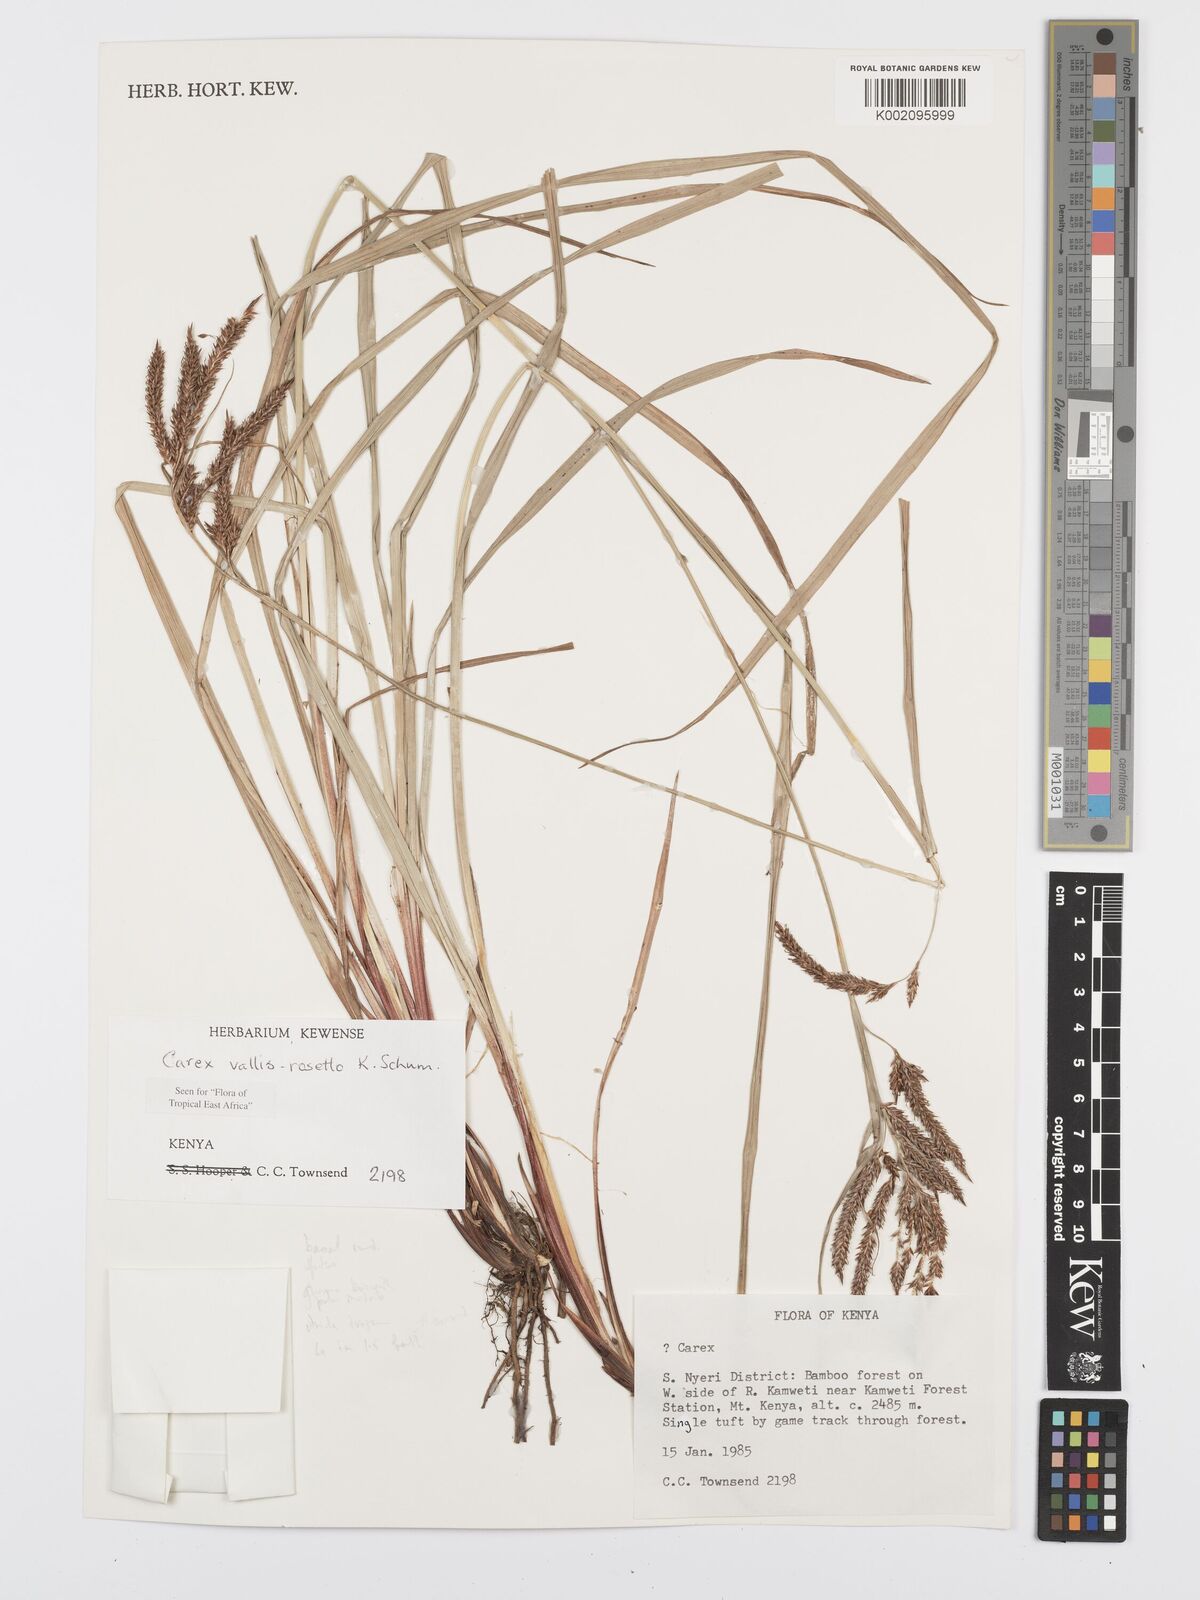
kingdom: Plantae
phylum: Tracheophyta
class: Liliopsida
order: Poales
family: Cyperaceae
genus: Carex
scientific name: Carex vallis-rosetto
